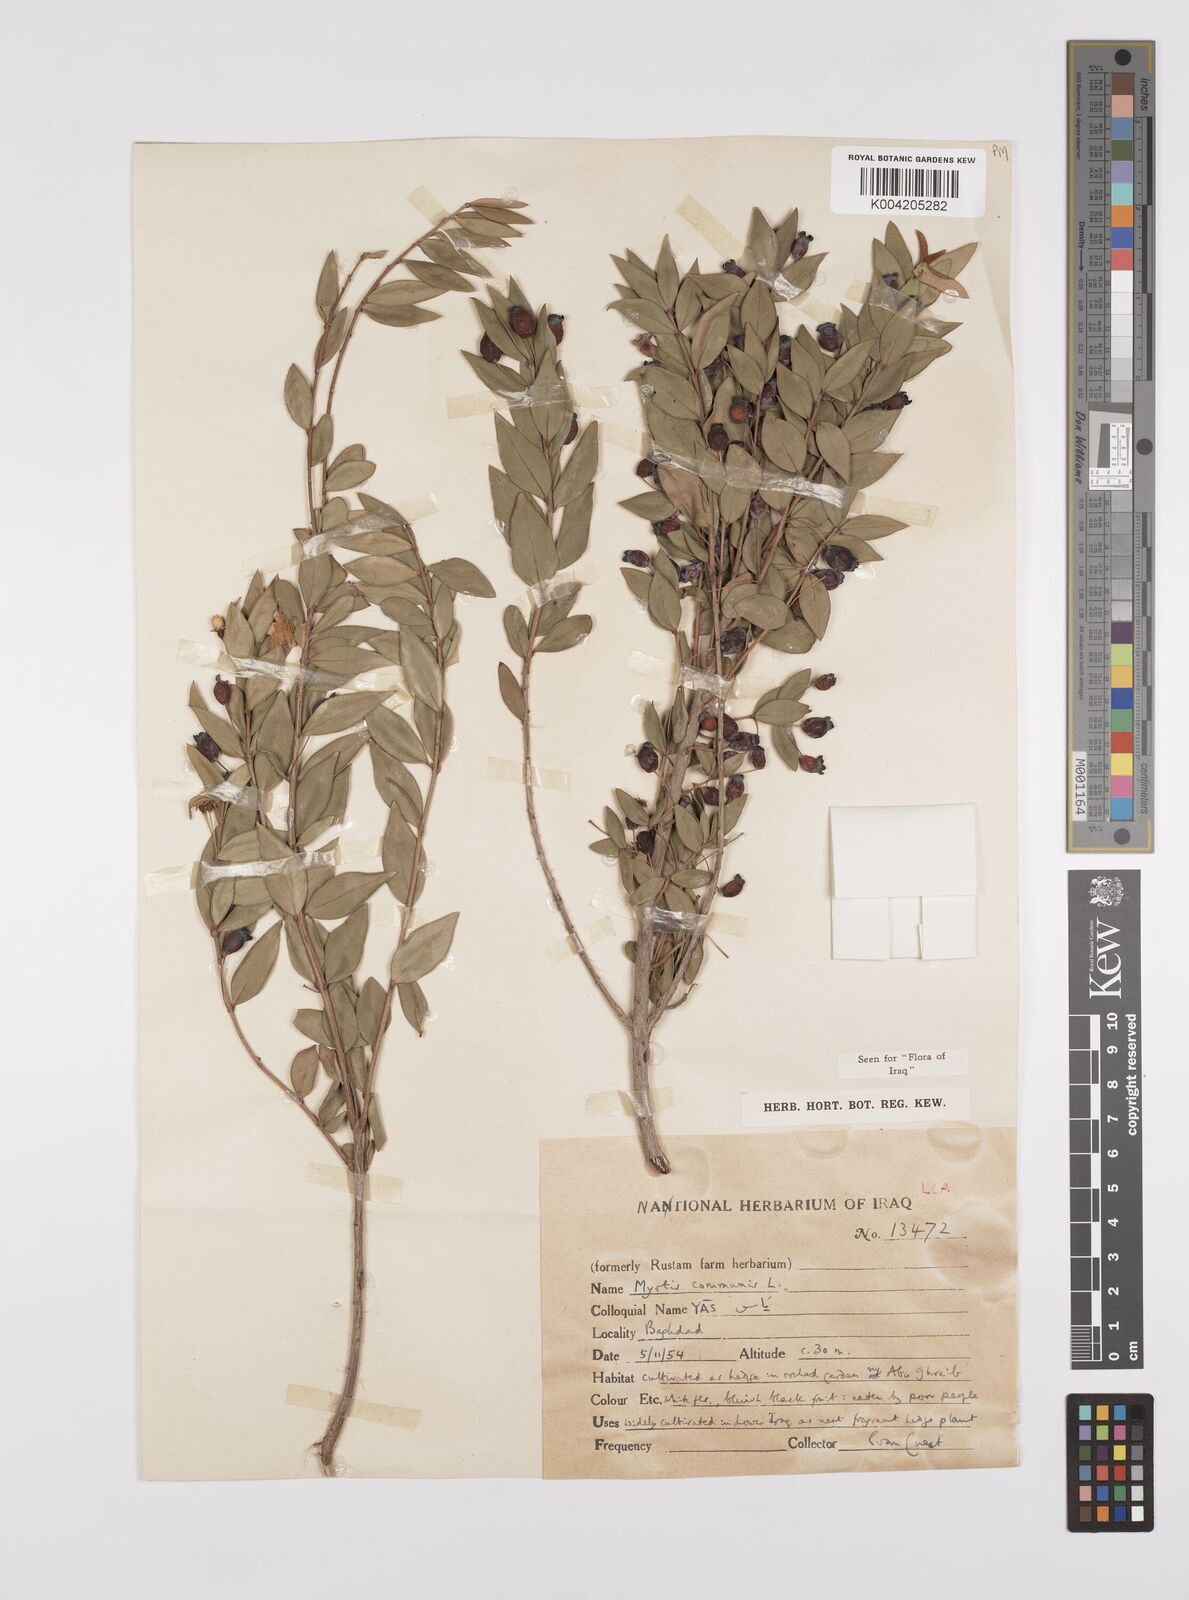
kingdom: Plantae
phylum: Tracheophyta
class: Magnoliopsida
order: Myrtales
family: Myrtaceae
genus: Myrtus
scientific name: Myrtus communis
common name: Myrtle
